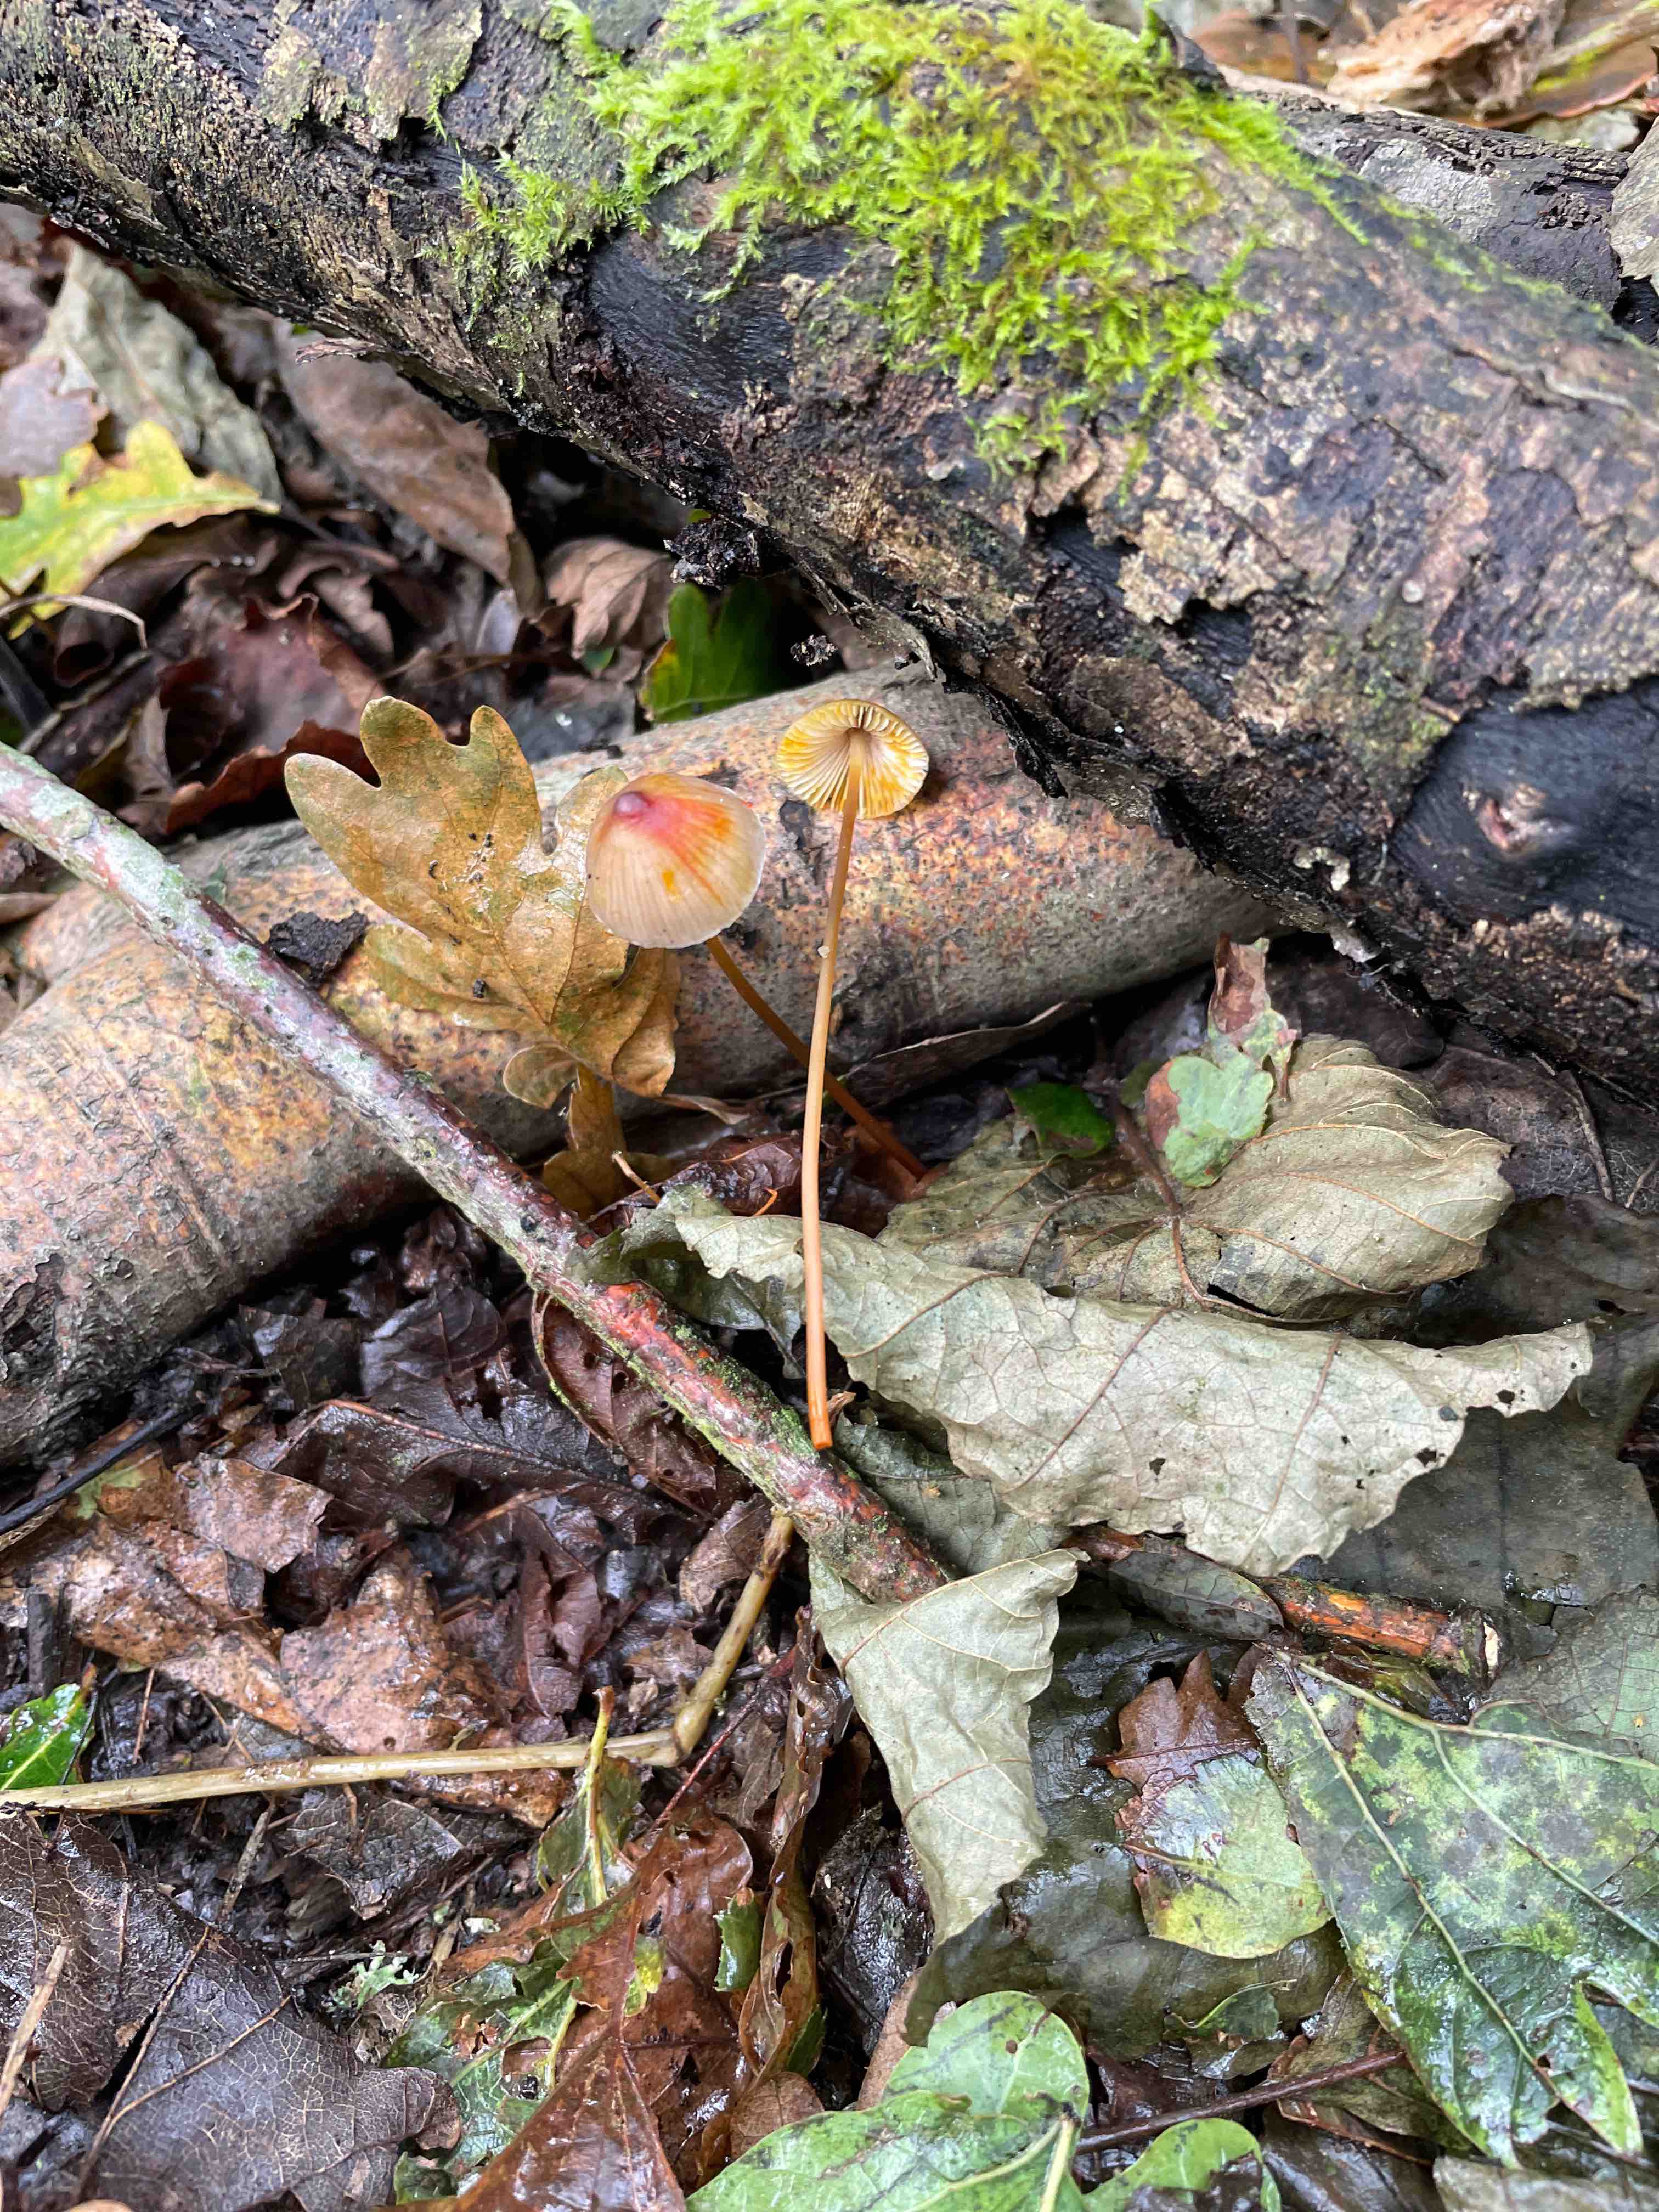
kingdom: Fungi
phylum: Basidiomycota
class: Agaricomycetes
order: Agaricales
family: Mycenaceae
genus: Mycena
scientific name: Mycena crocata
